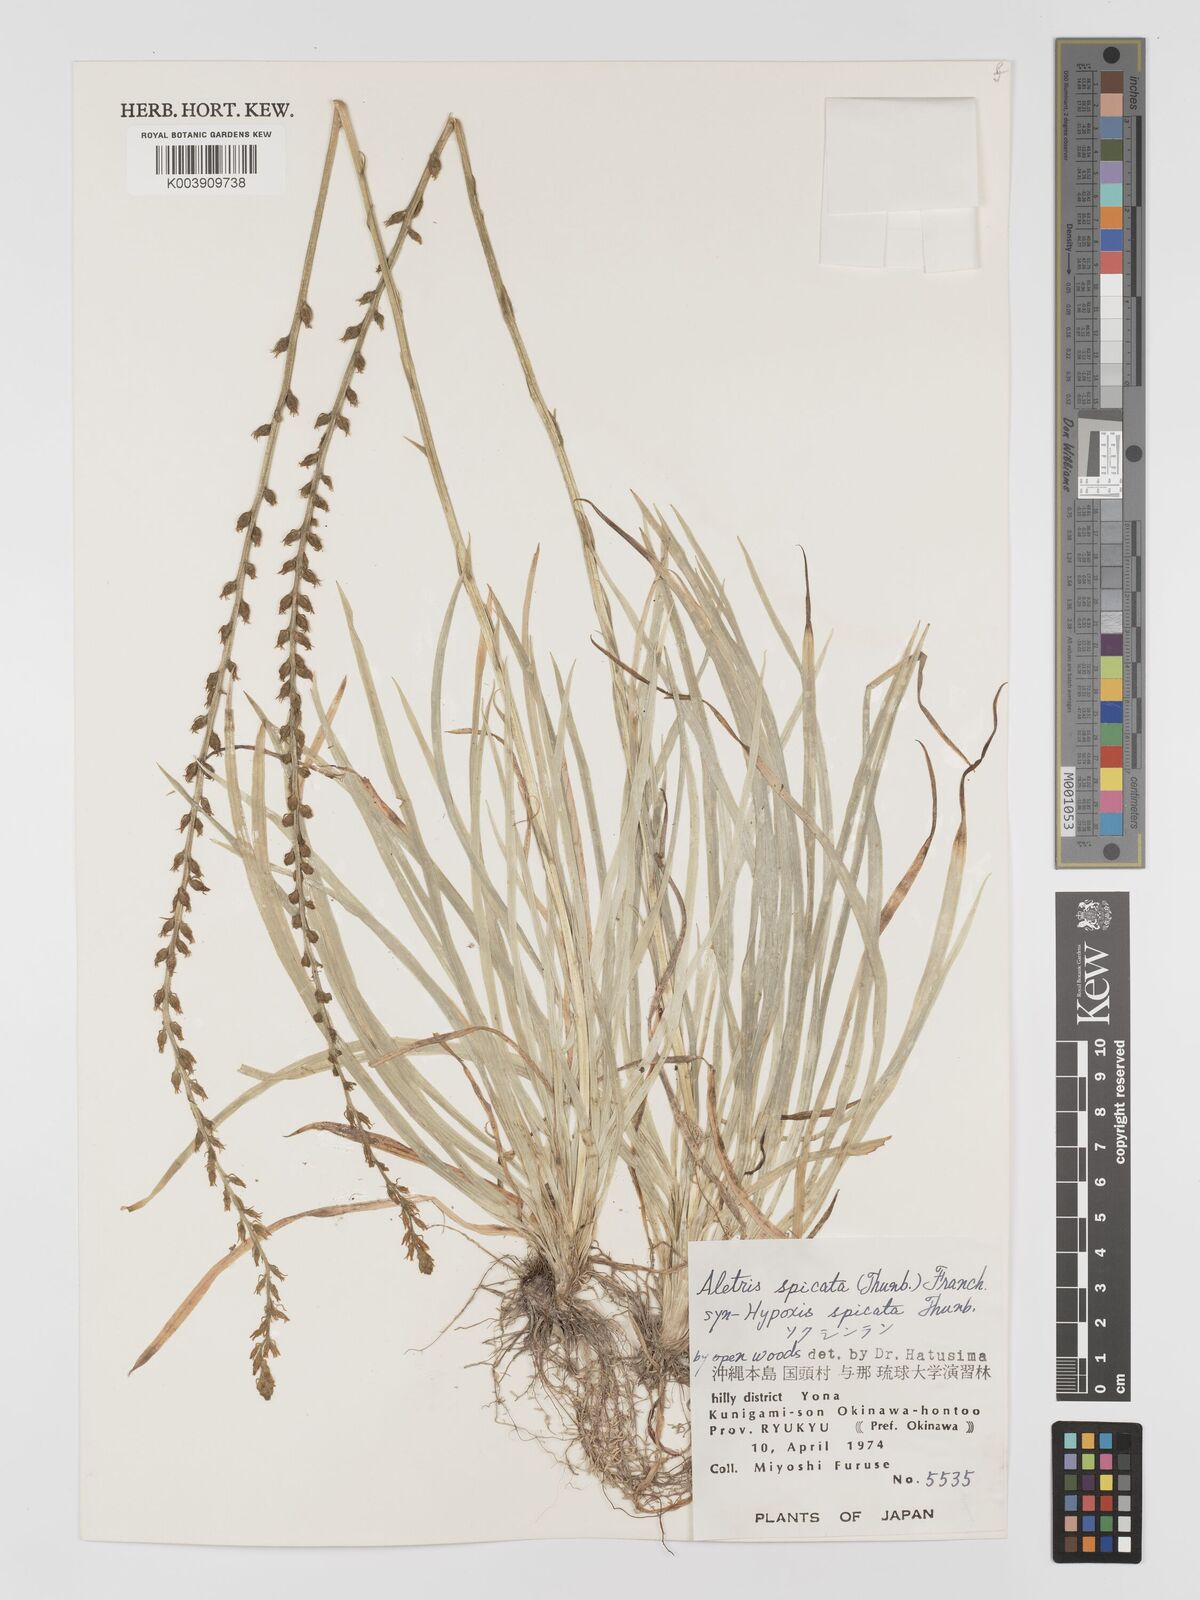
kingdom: Plantae
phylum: Tracheophyta
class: Liliopsida
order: Dioscoreales
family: Nartheciaceae
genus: Aletris
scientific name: Aletris spicata
